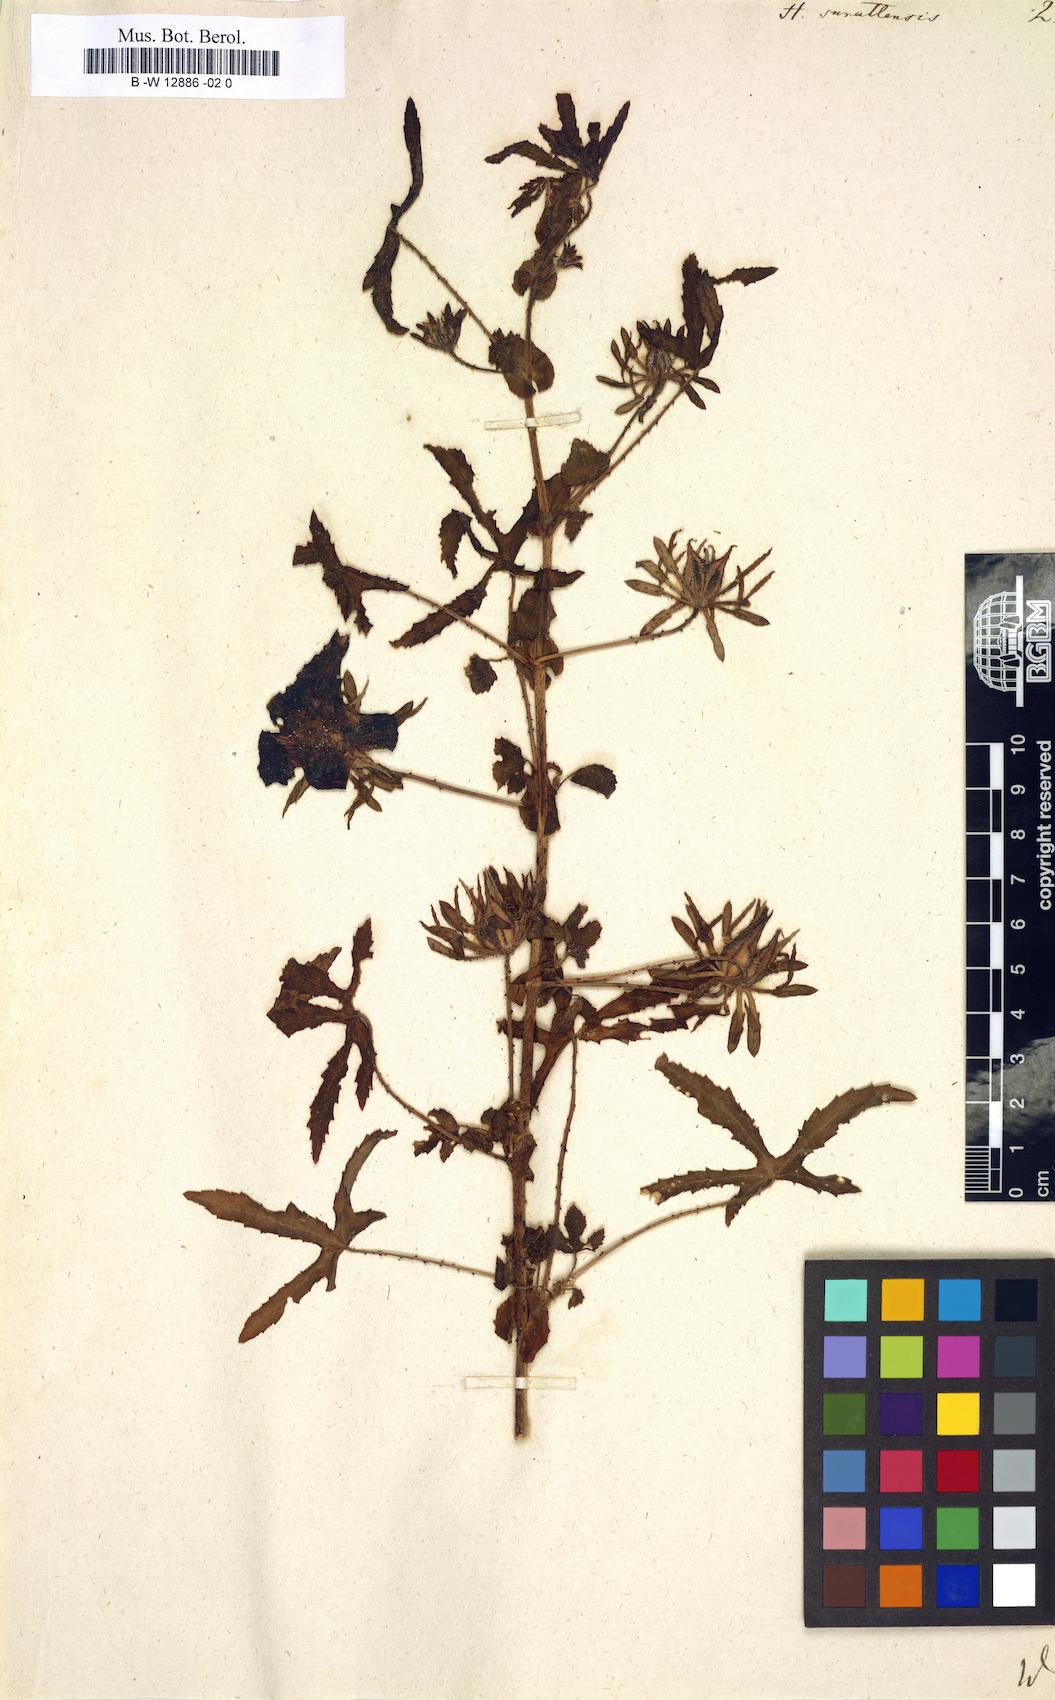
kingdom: Plantae
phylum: Tracheophyta
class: Magnoliopsida
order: Malvales
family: Malvaceae
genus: Hibiscus
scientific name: Hibiscus surattensis
